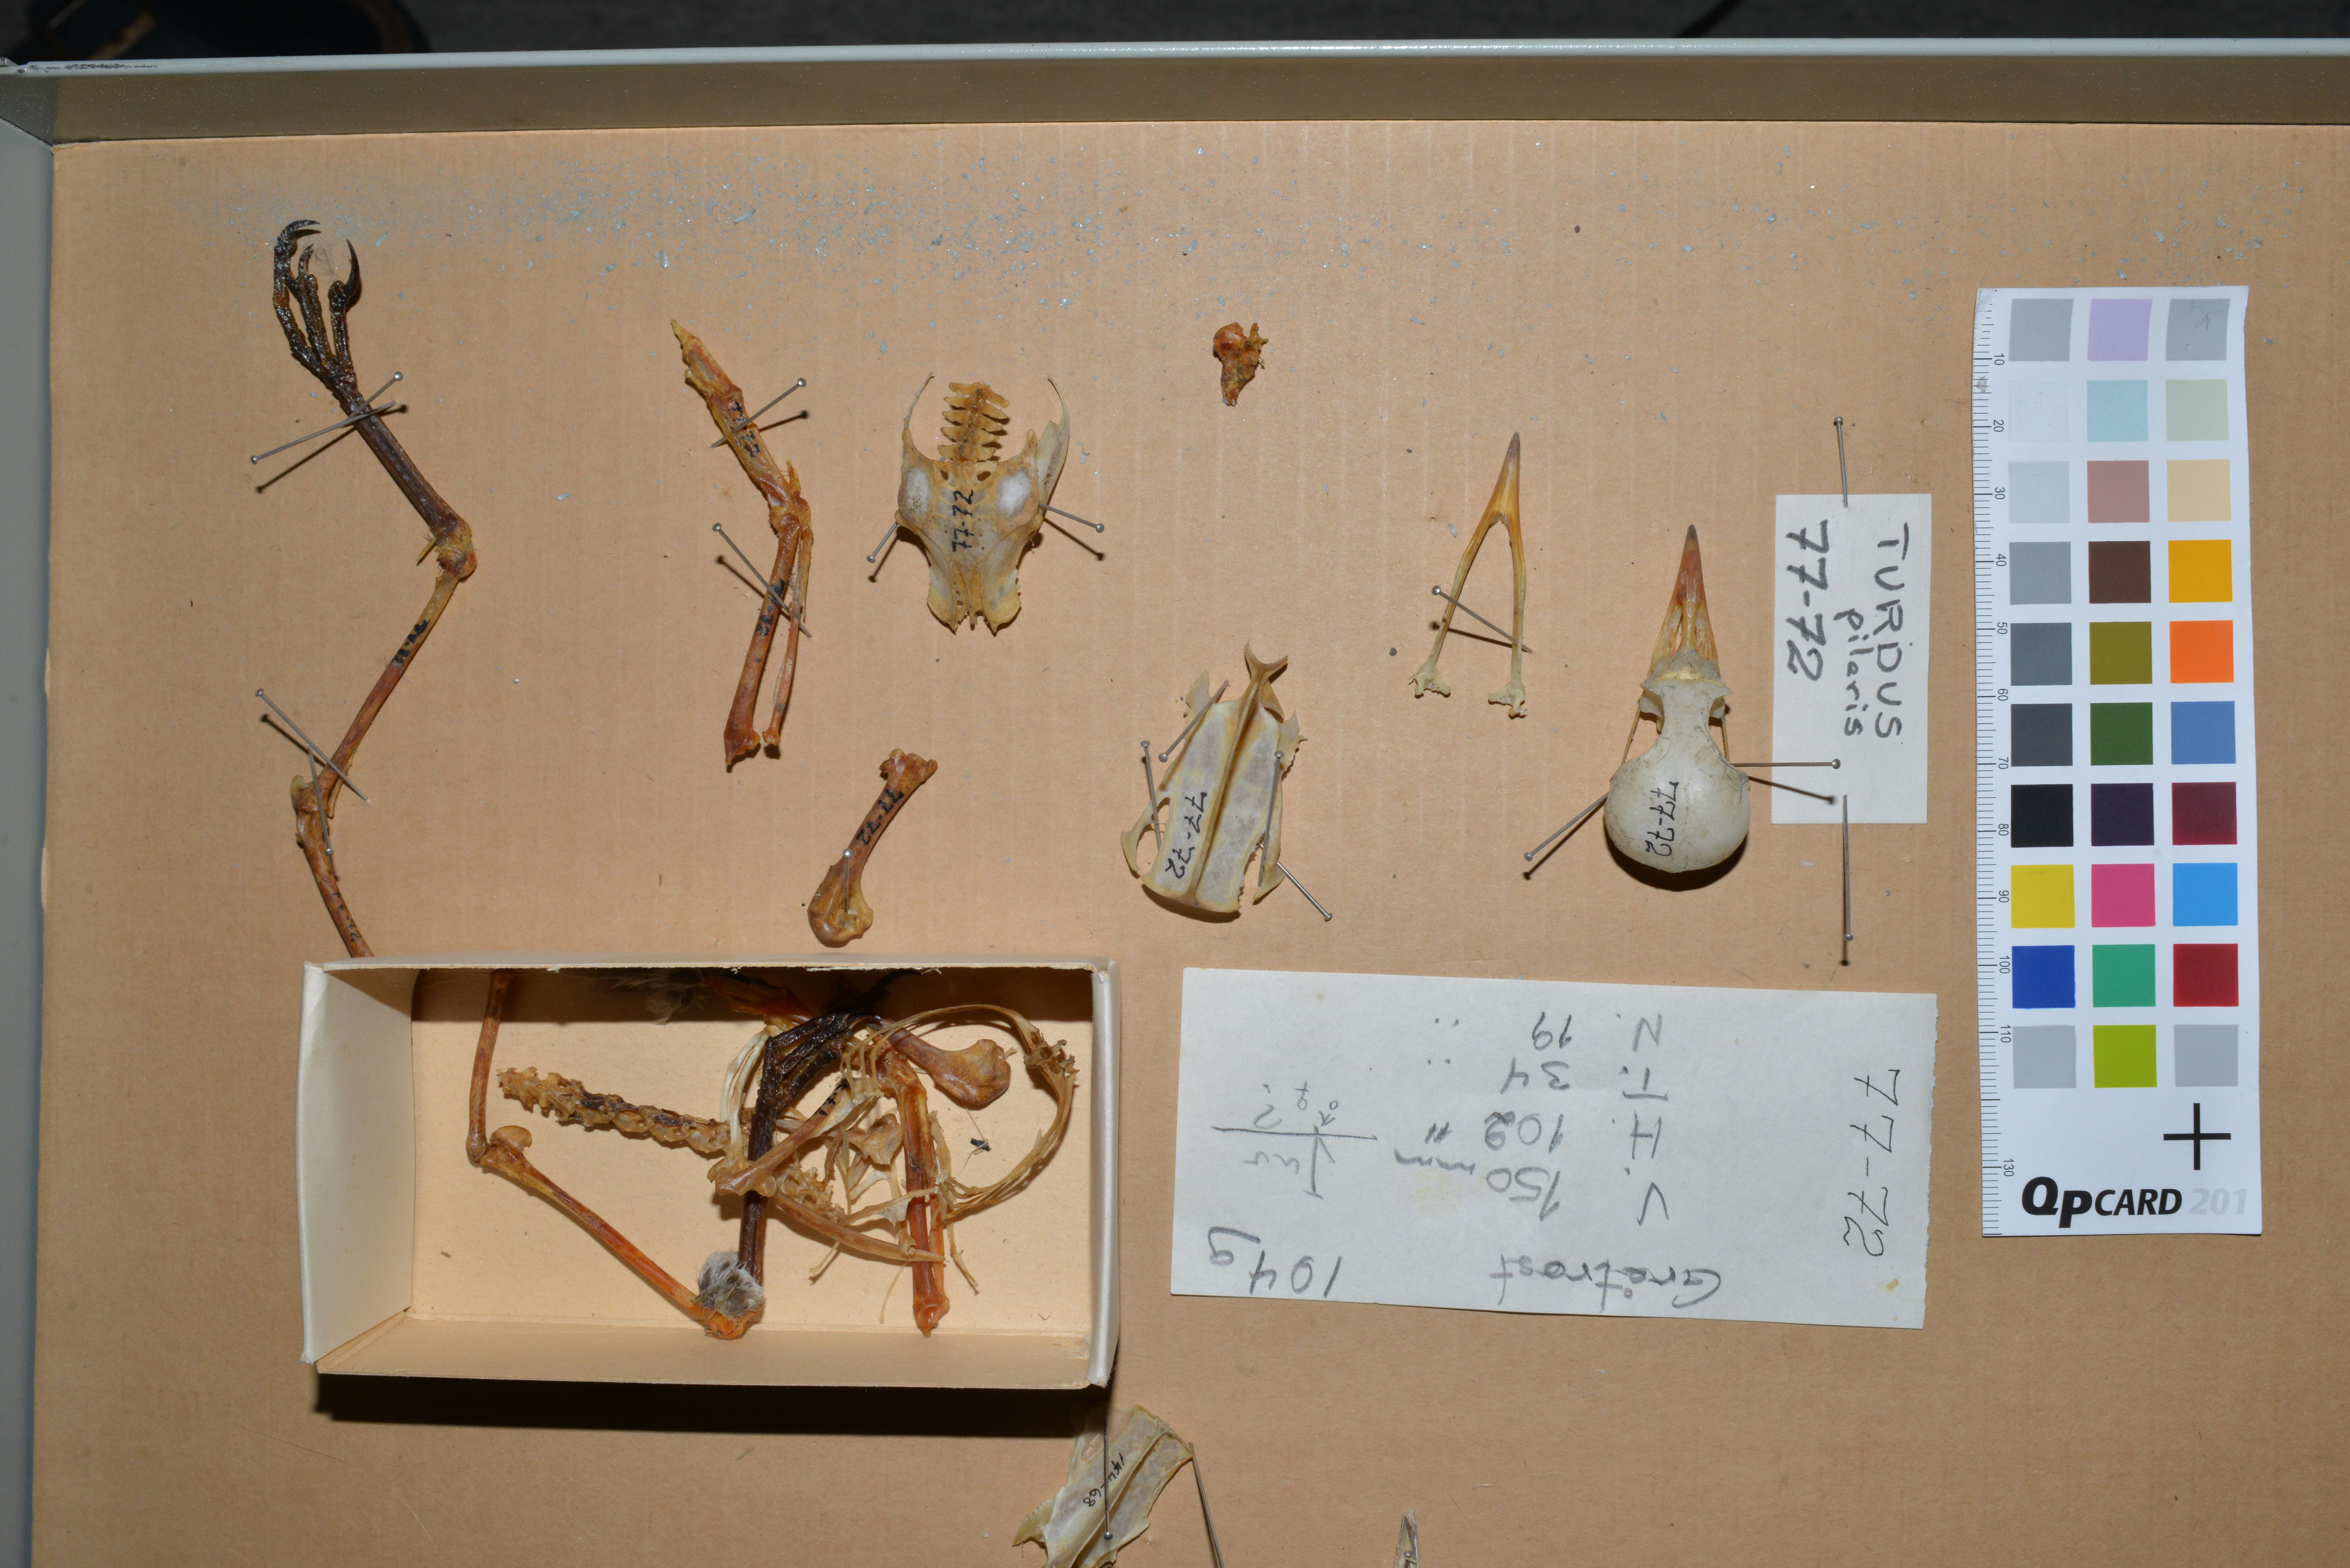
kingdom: Animalia
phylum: Chordata
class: Aves
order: Passeriformes
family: Turdidae
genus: Turdus
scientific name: Turdus pilaris
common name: Fieldfare
